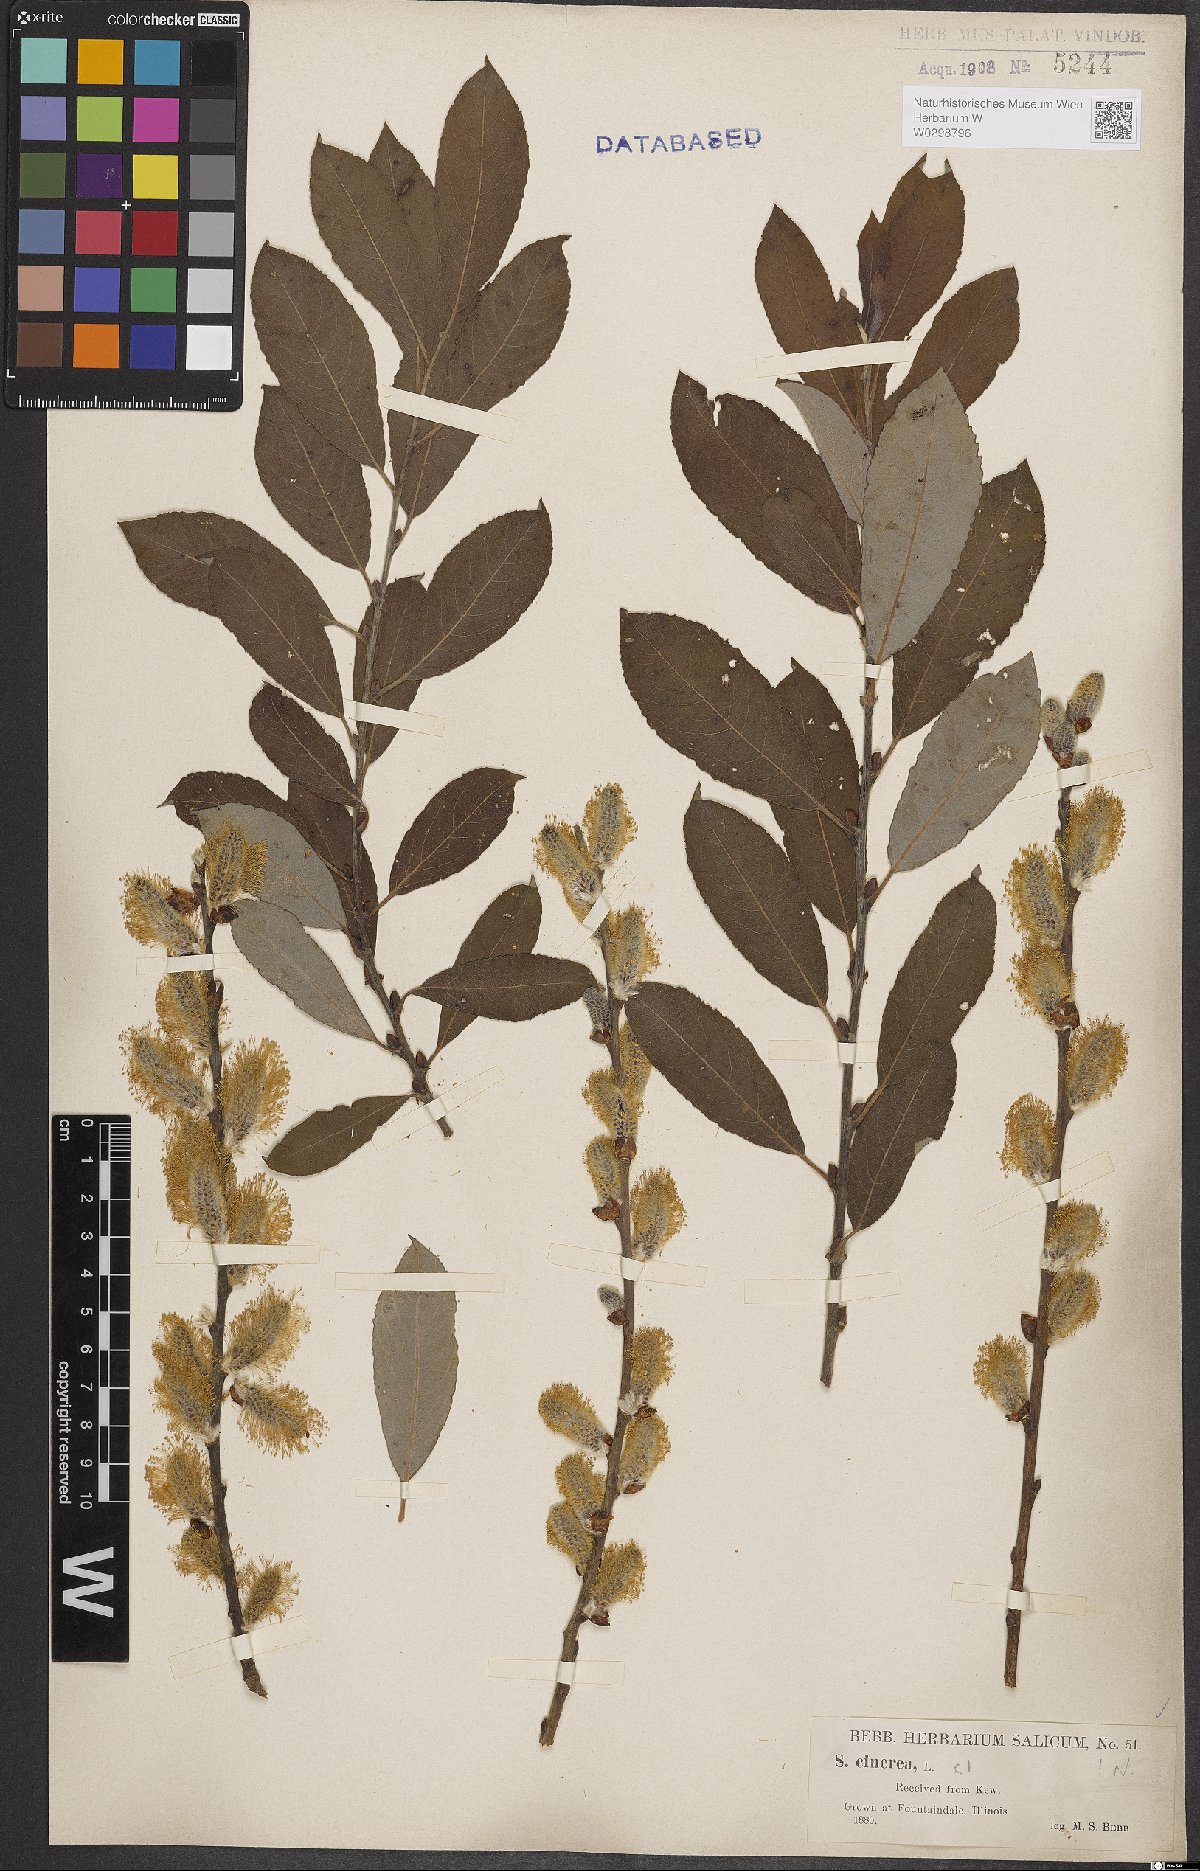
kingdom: Plantae
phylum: Tracheophyta
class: Magnoliopsida
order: Malpighiales
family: Salicaceae
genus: Salix
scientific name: Salix cinerea
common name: Common sallow
